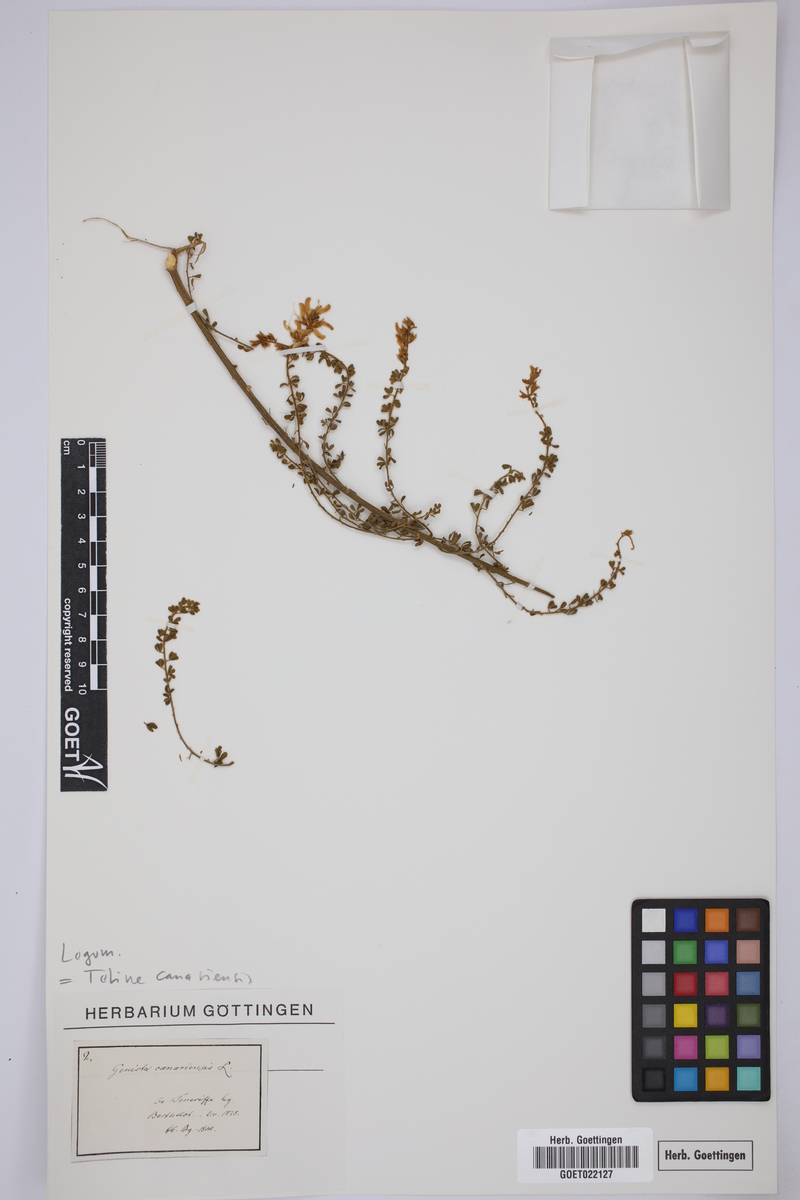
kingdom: Plantae
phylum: Tracheophyta
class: Magnoliopsida
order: Fabales
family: Fabaceae
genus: Genista
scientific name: Genista canariensis
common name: Canary broom
